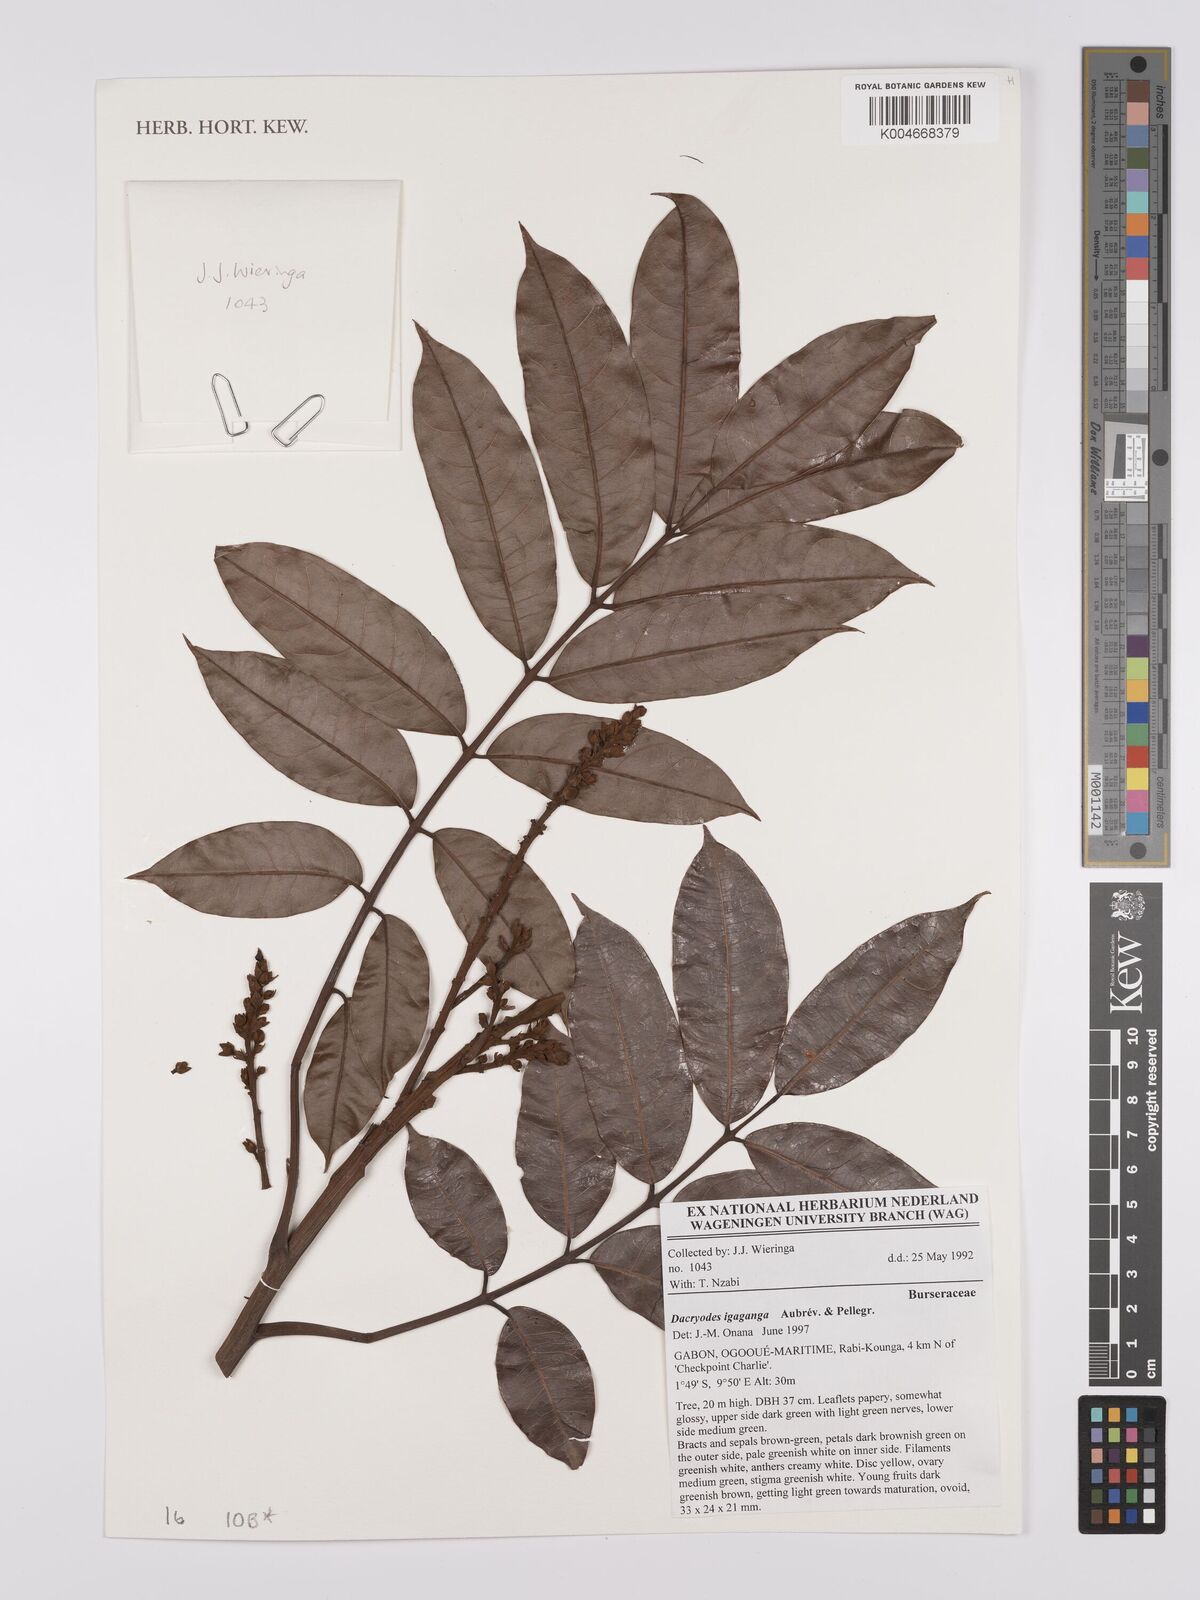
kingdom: Plantae
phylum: Tracheophyta
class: Magnoliopsida
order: Sapindales
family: Burseraceae
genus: Pachylobus
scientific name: Pachylobus igaganga
